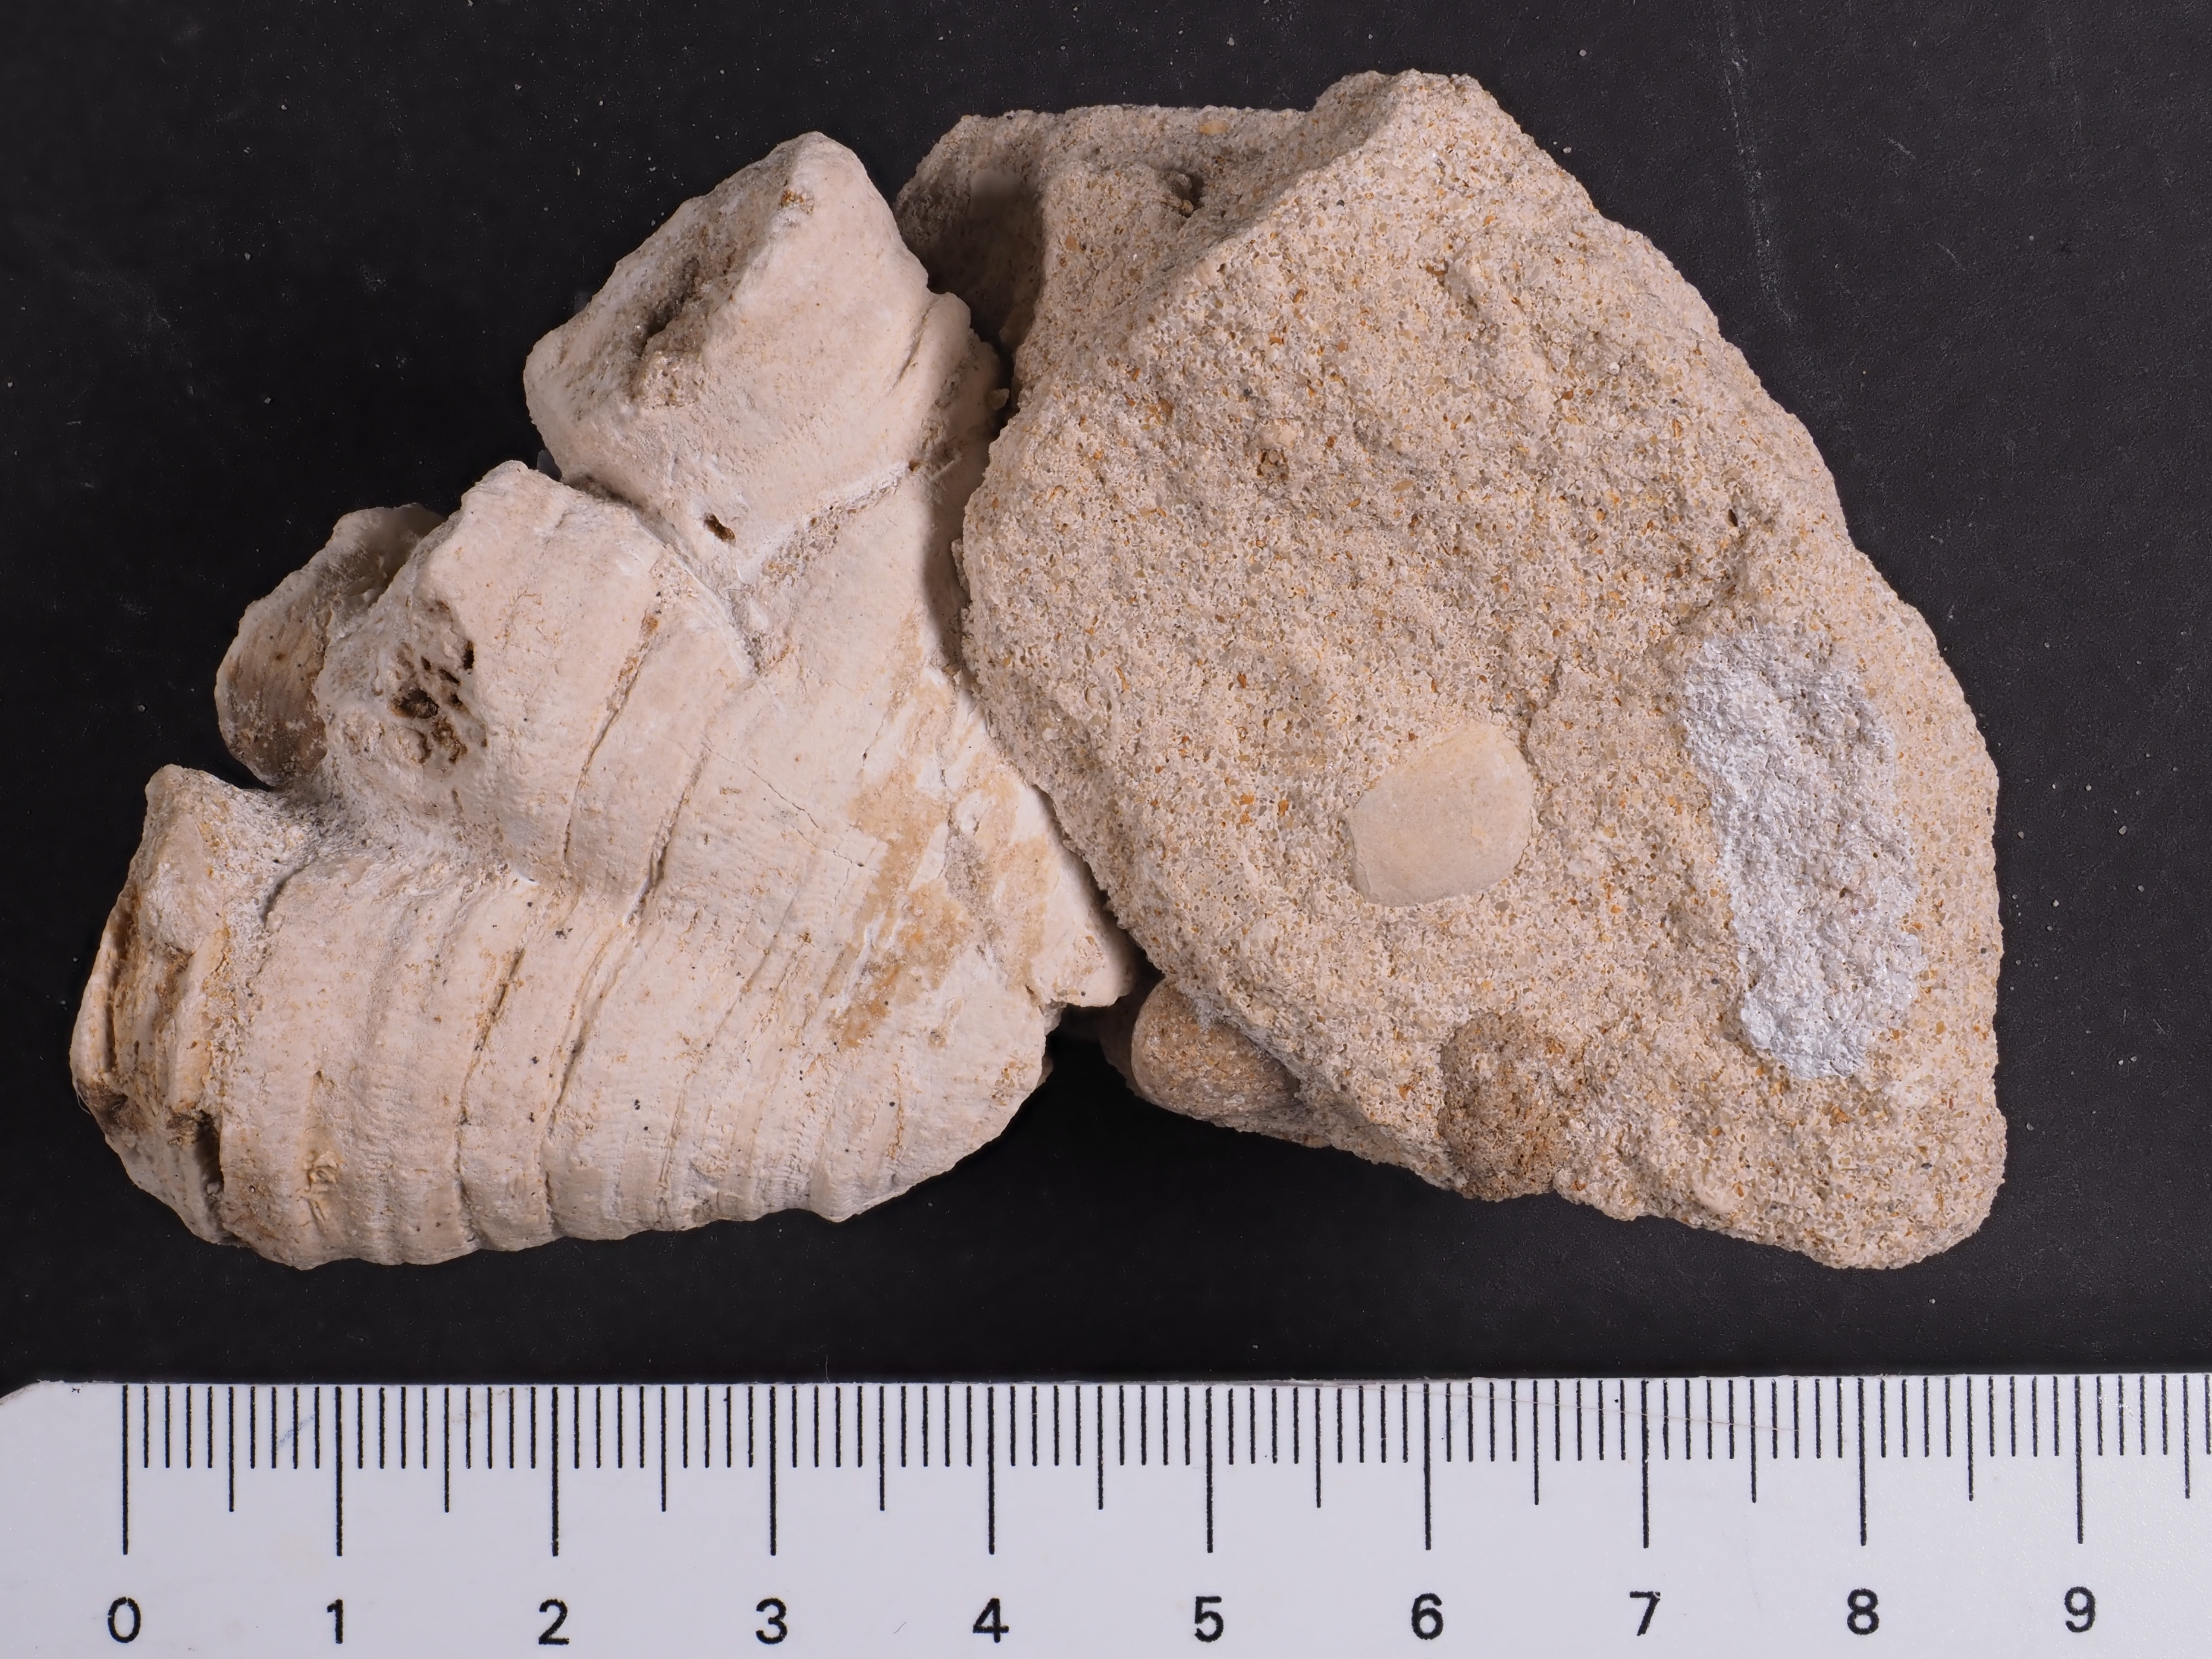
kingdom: Animalia
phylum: Cnidaria
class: Anthozoa
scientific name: Anthozoa
